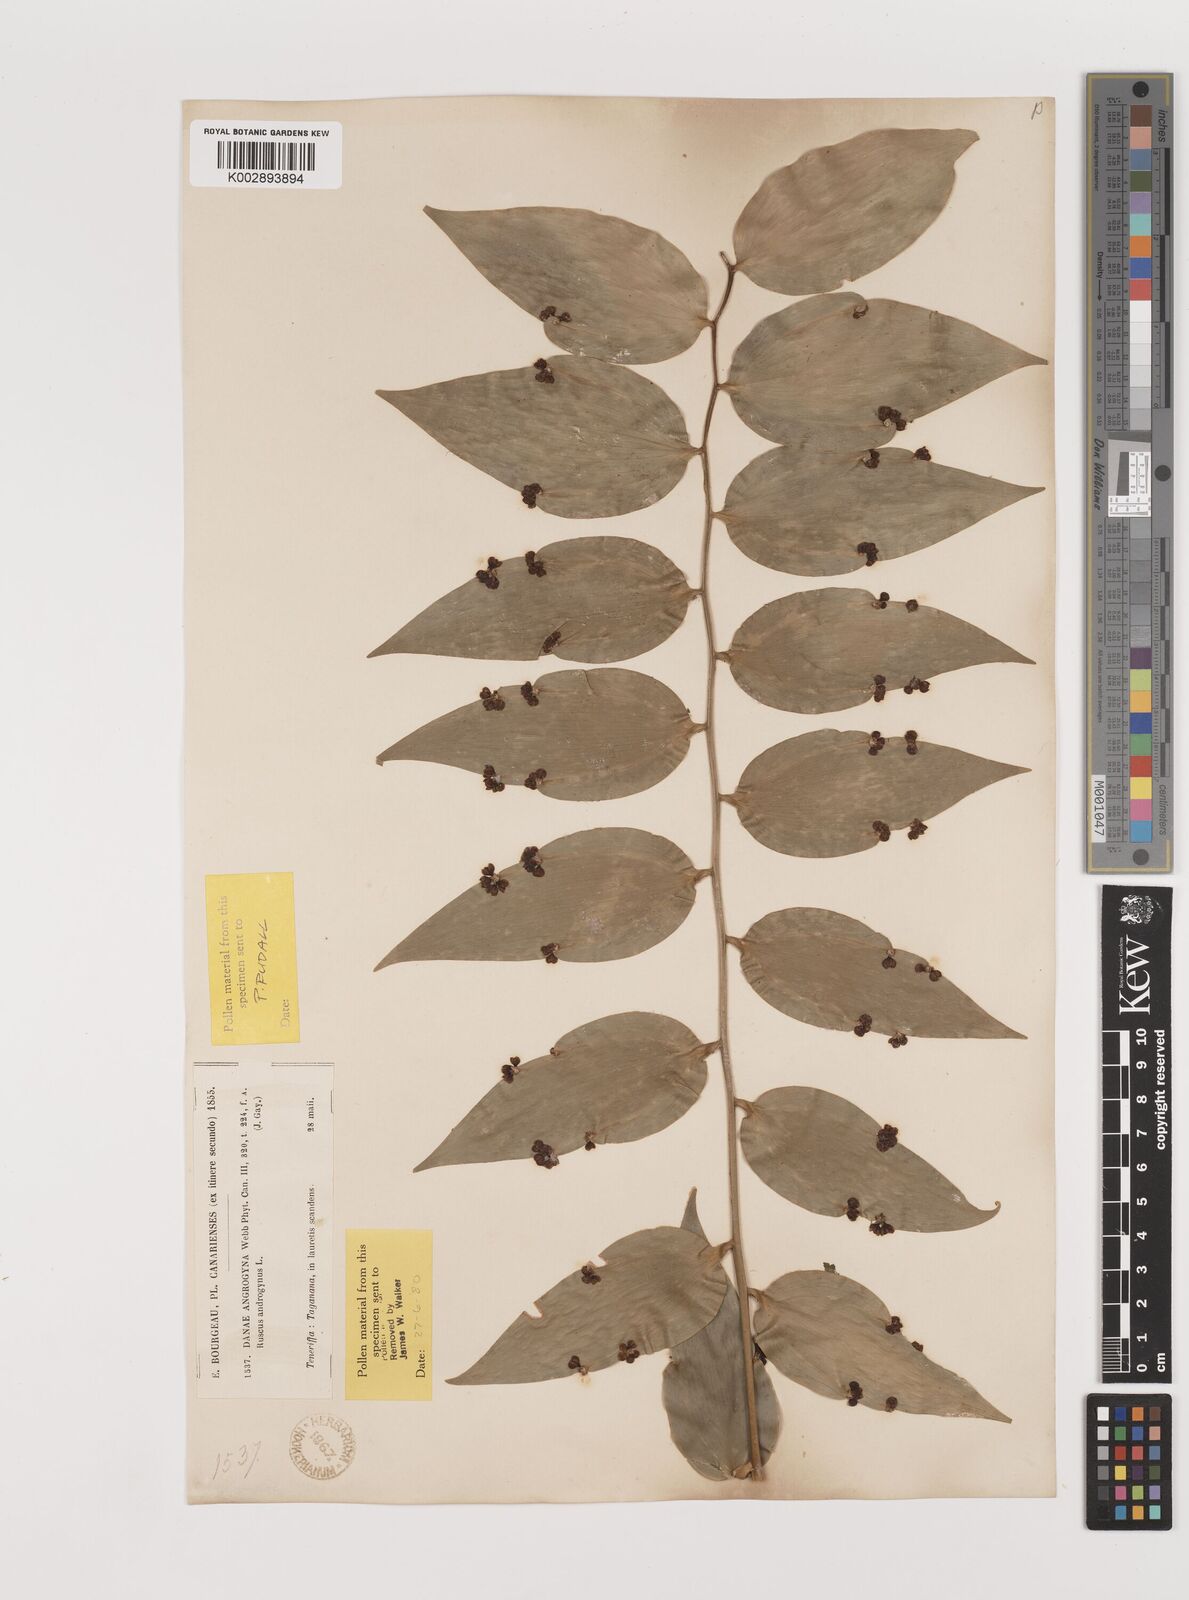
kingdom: Plantae
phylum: Tracheophyta
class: Liliopsida
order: Asparagales
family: Asparagaceae
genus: Semele
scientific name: Semele androgyna
